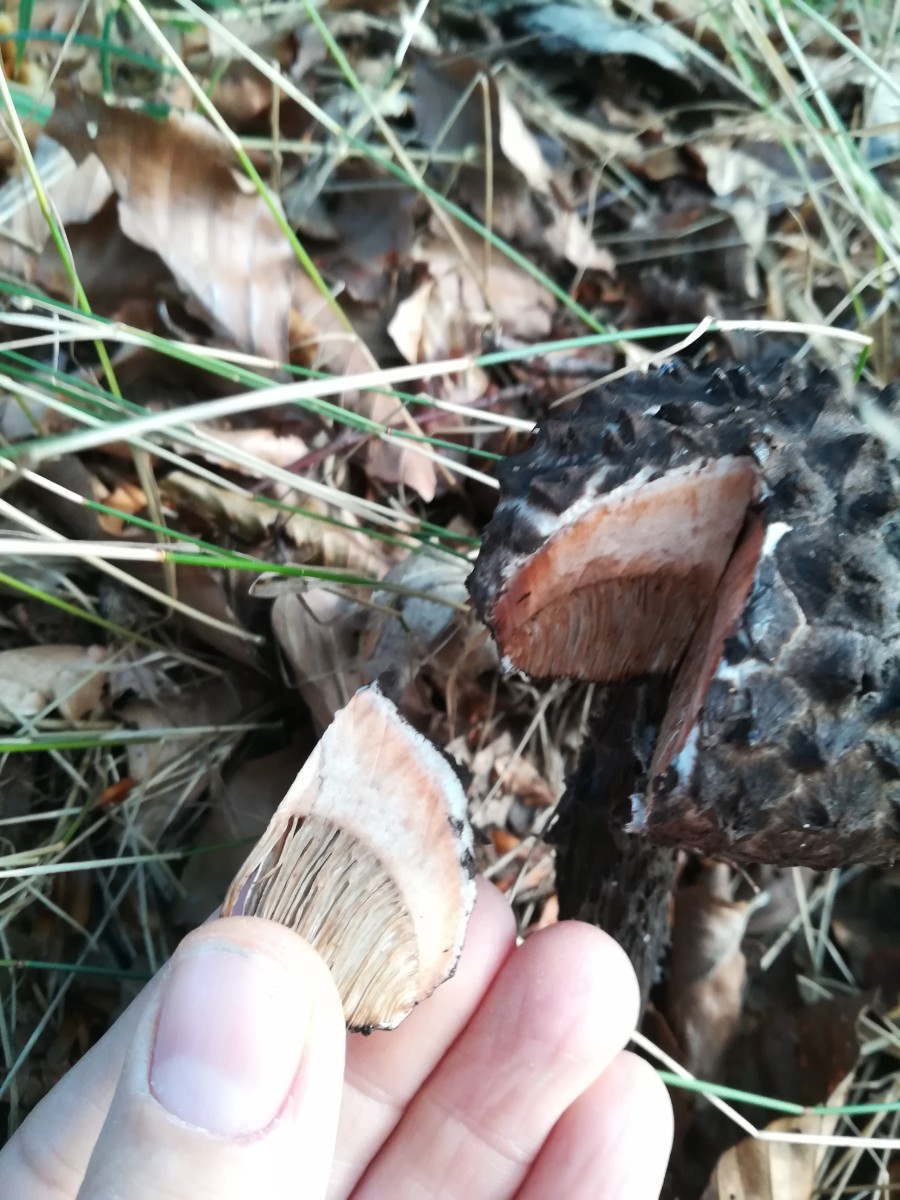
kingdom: Fungi
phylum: Basidiomycota
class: Agaricomycetes
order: Boletales
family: Boletaceae
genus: Strobilomyces
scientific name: Strobilomyces strobilaceus
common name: koglerørhat
